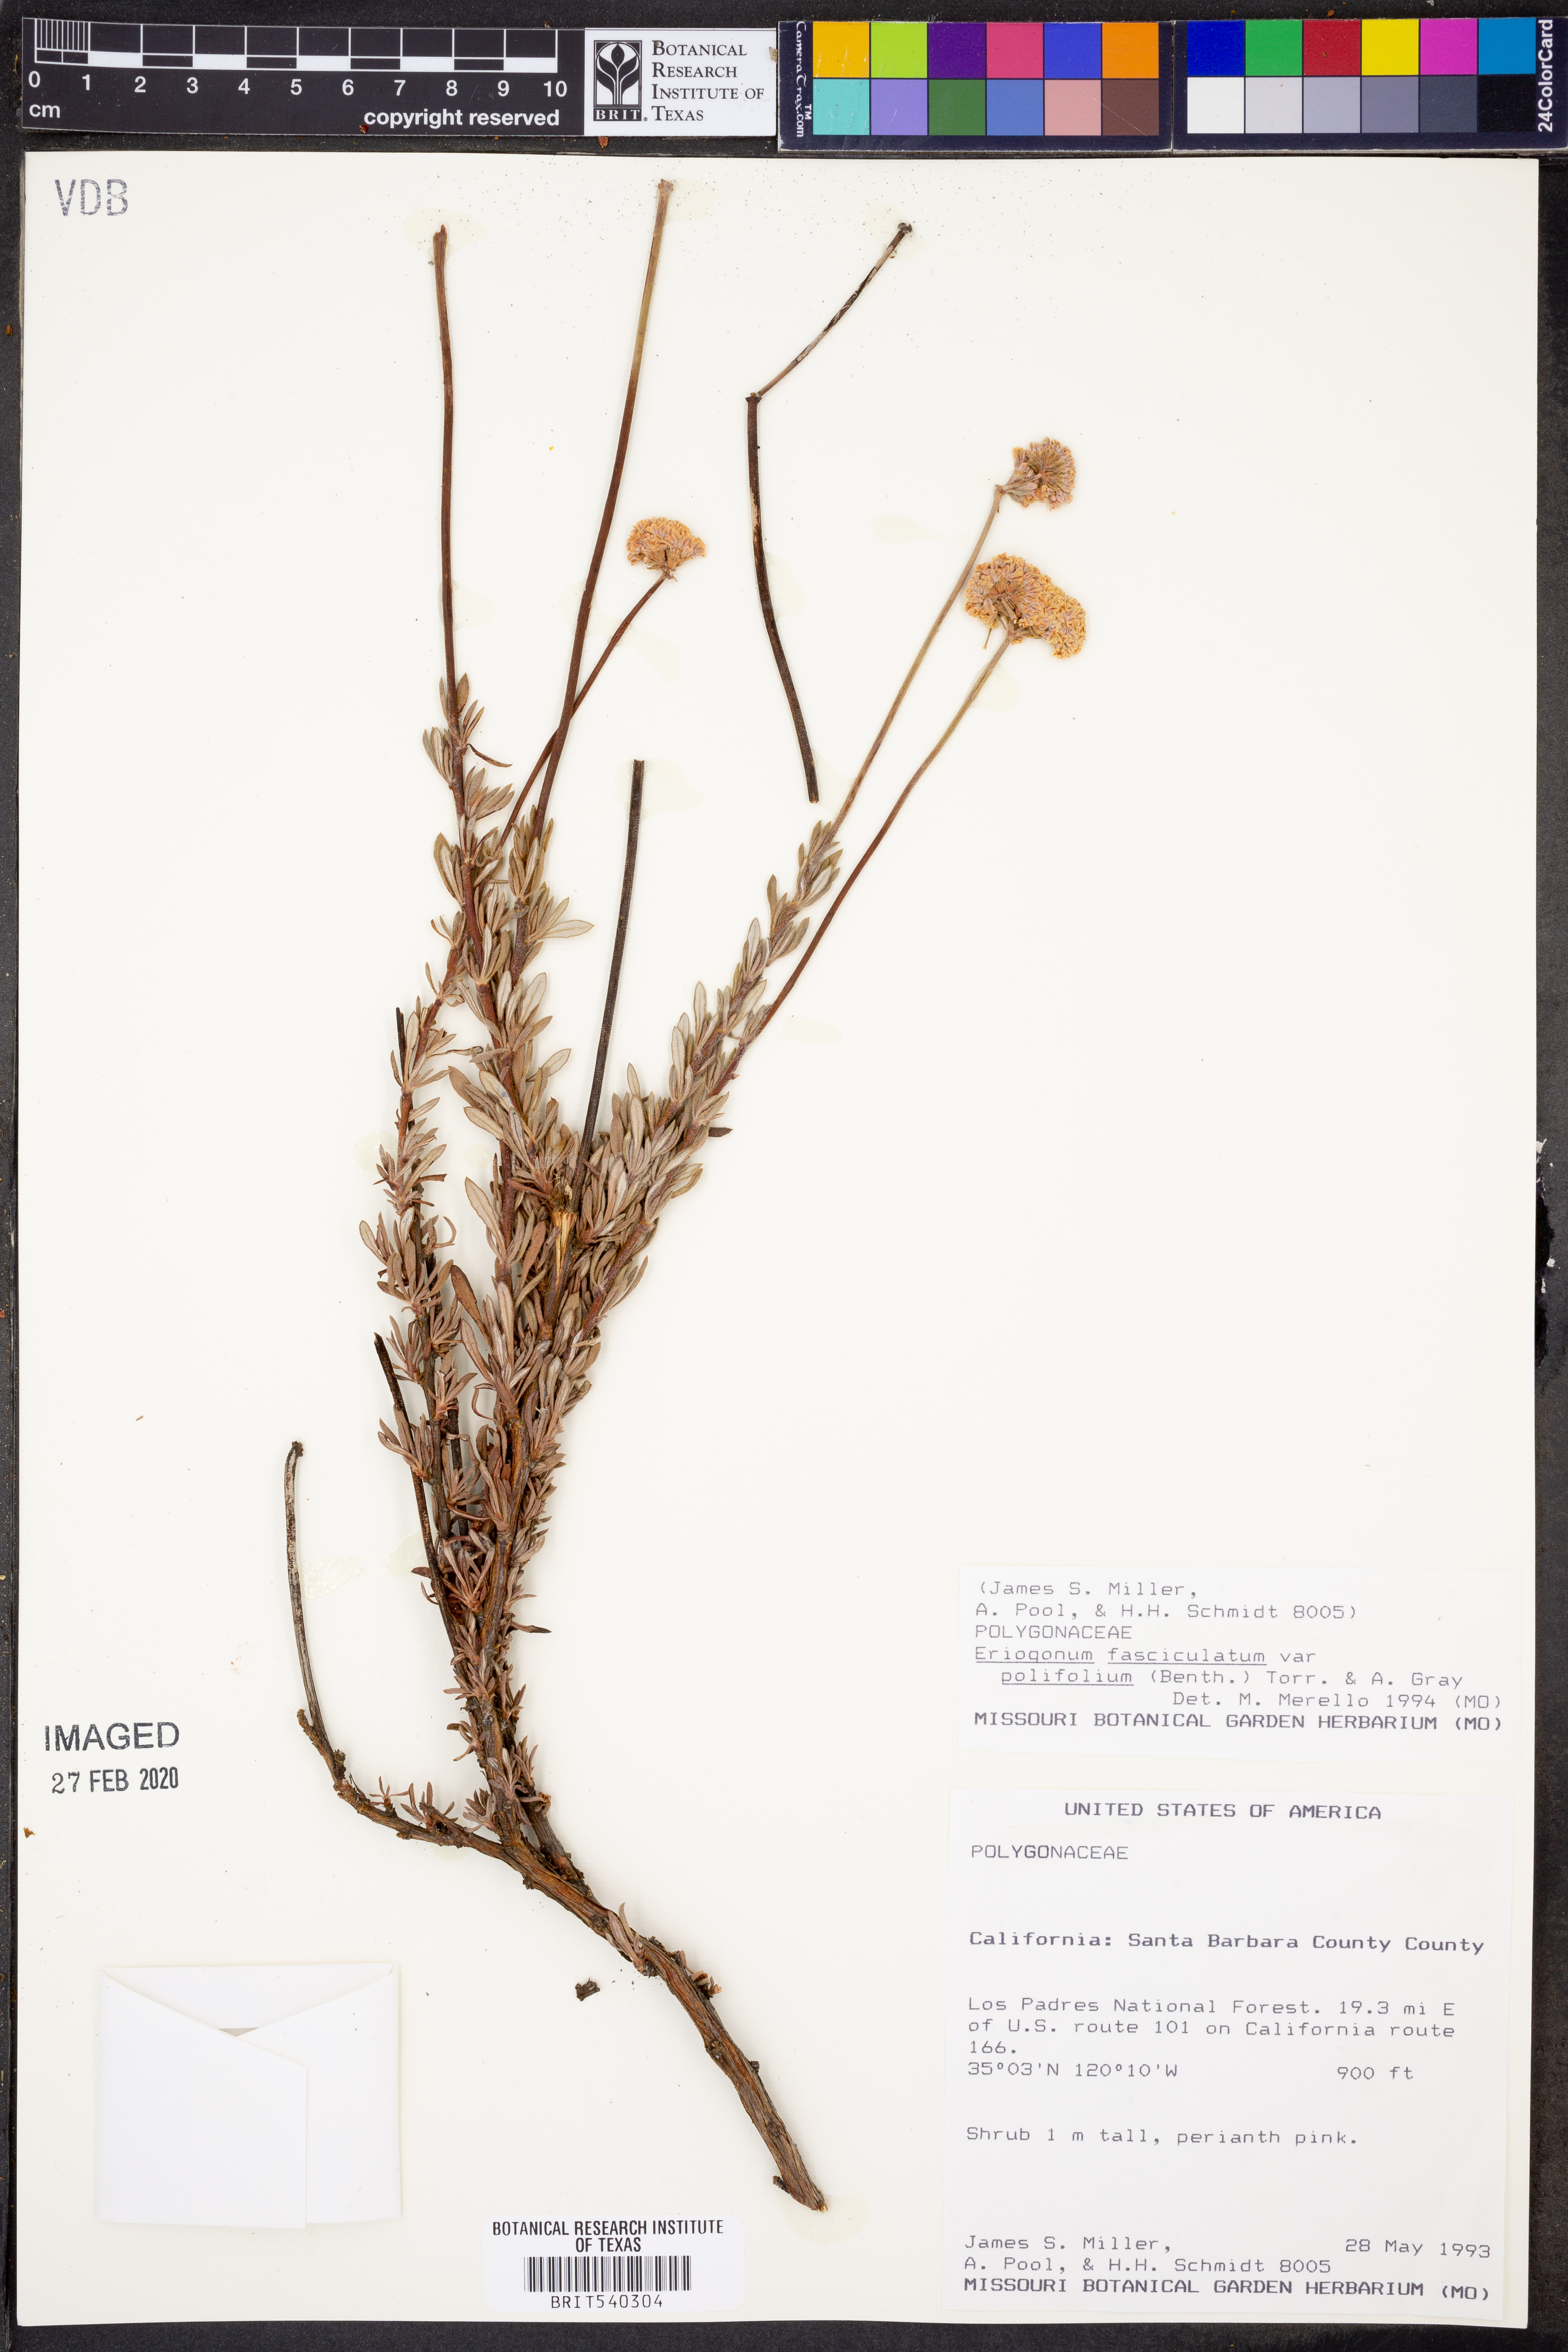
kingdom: Plantae
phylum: Tracheophyta
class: Magnoliopsida
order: Caryophyllales
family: Polygonaceae
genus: Eriogonum
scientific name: Eriogonum fasciculatum
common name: California wild buckwheat
